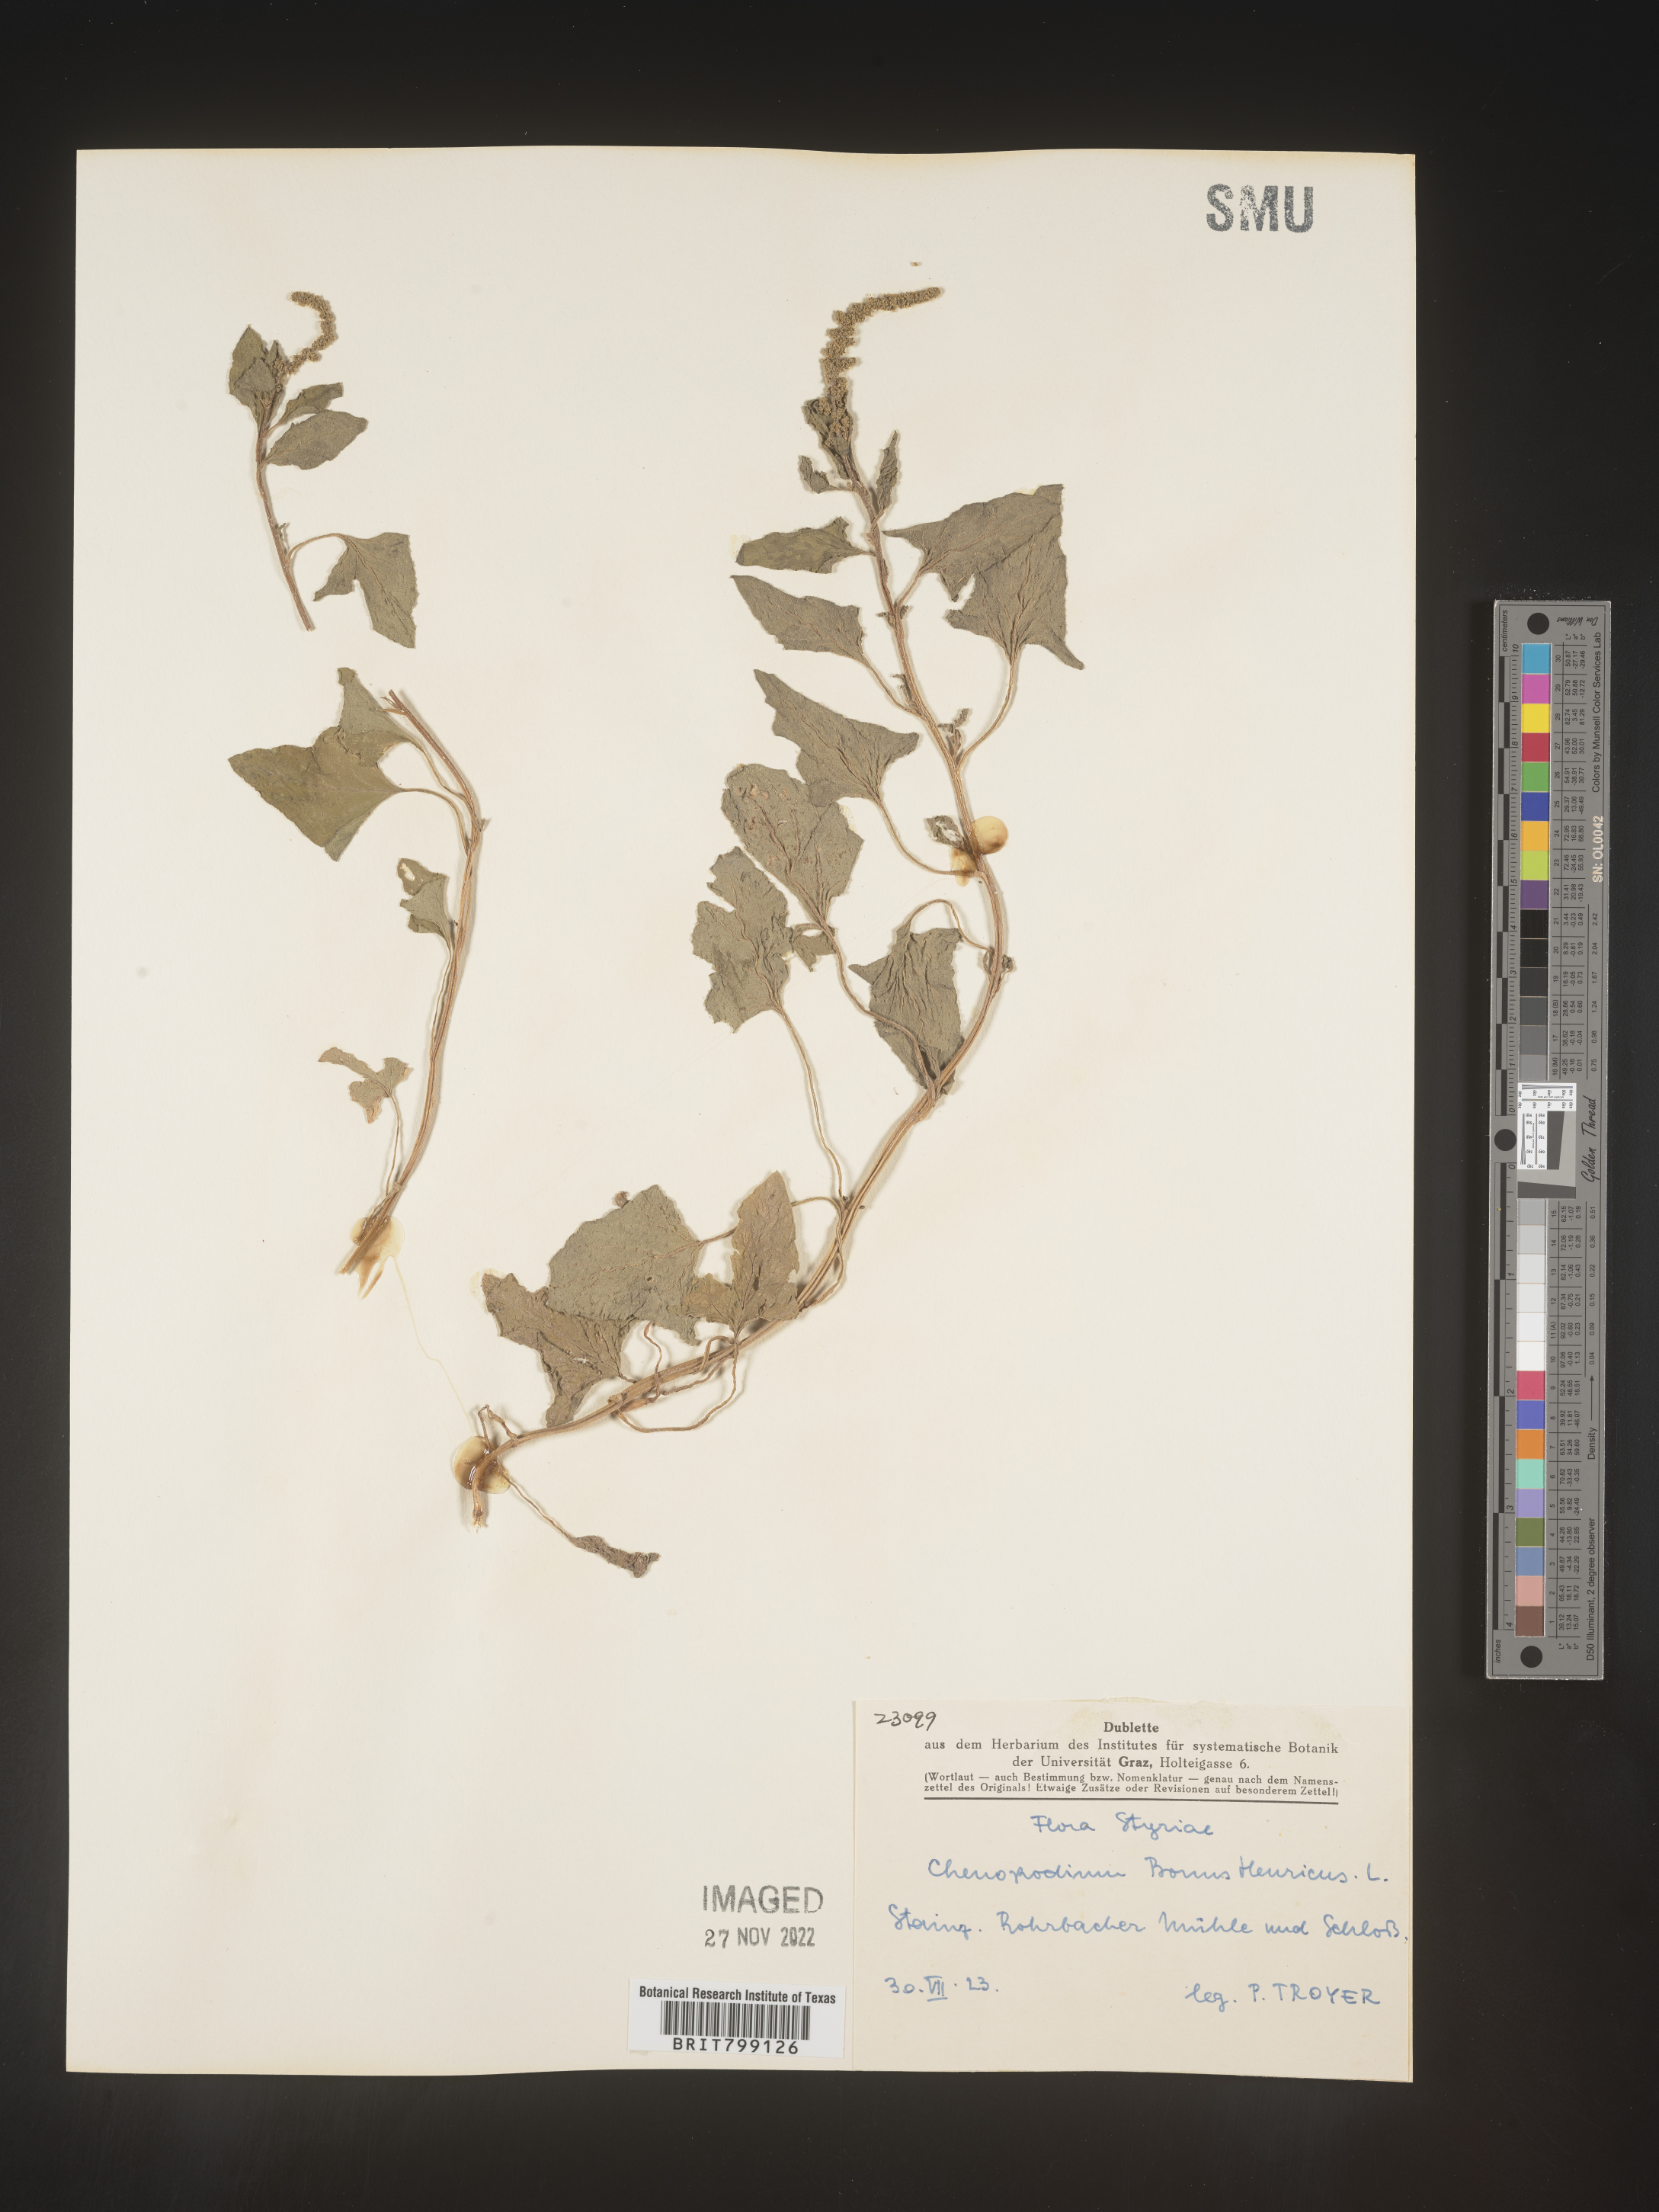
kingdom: Plantae
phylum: Tracheophyta
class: Magnoliopsida
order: Caryophyllales
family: Amaranthaceae
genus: Blitum
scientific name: Blitum bonus-henricus
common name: Good king henry
